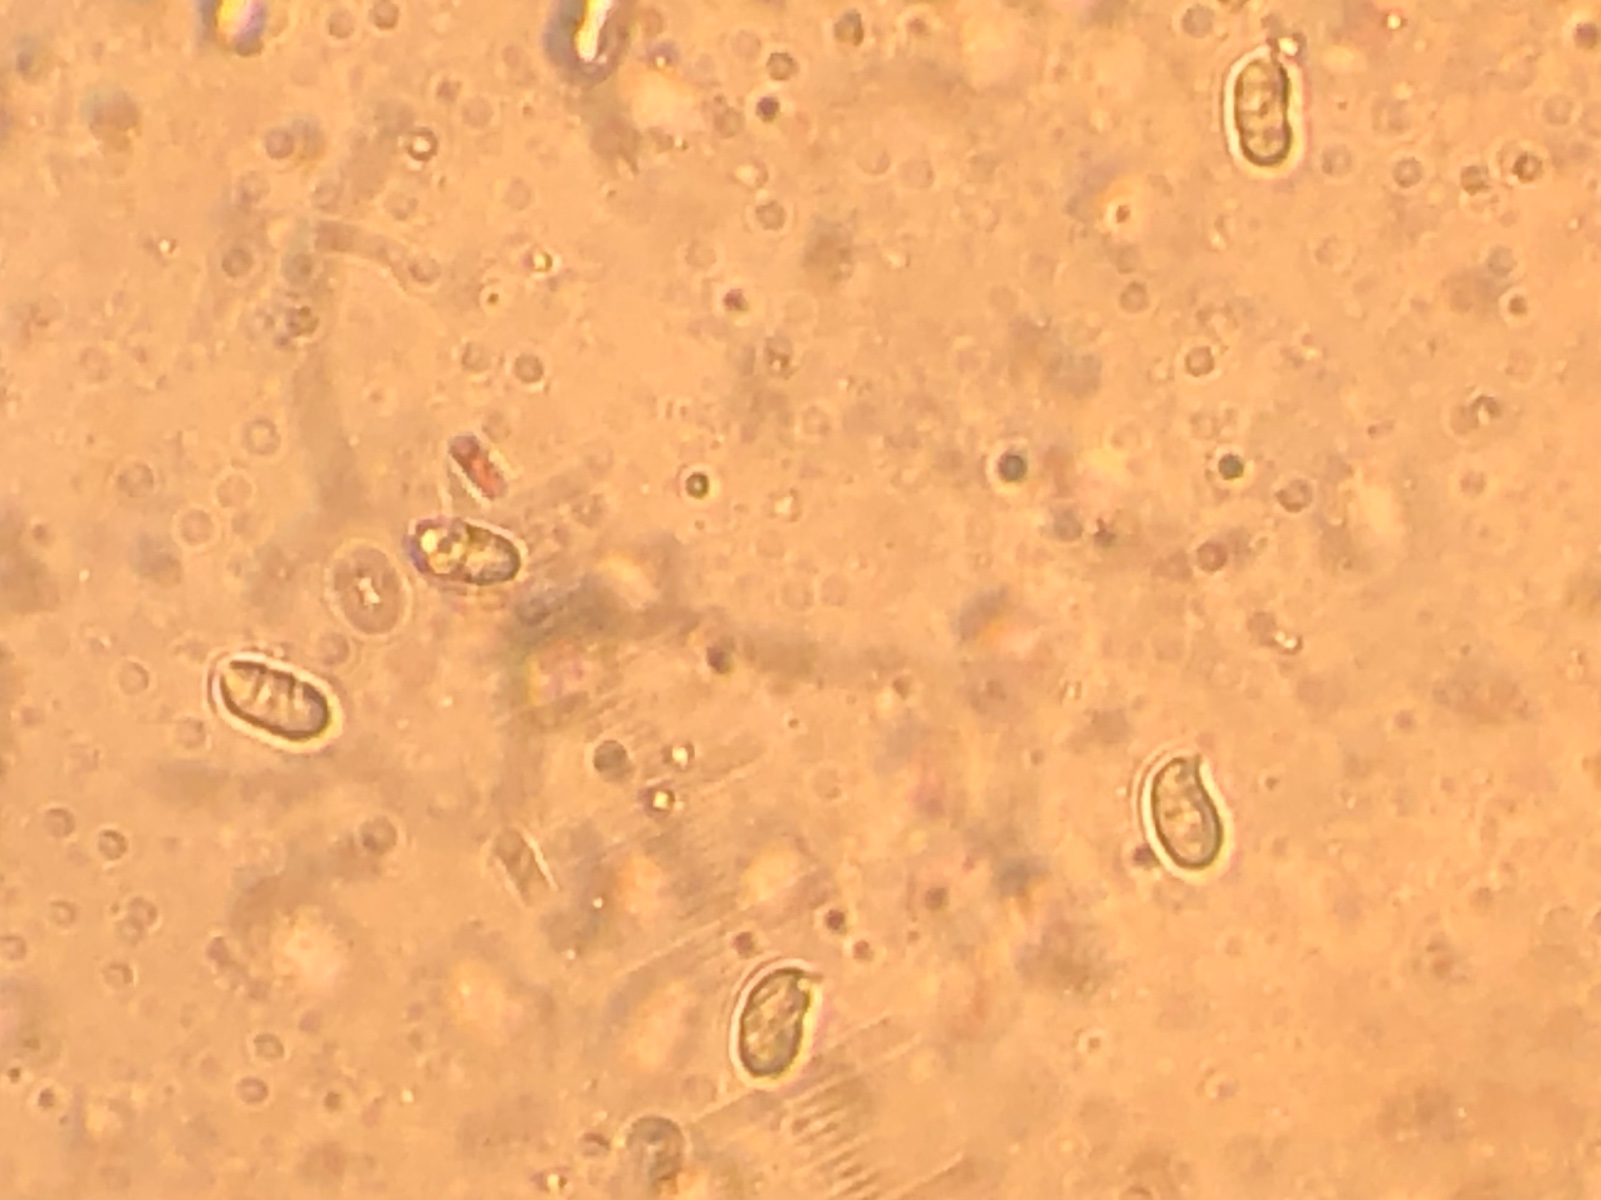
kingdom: Fungi
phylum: Basidiomycota
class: Agaricomycetes
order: Agaricales
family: Hygrophoraceae
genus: Hygrocybe
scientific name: Hygrocybe
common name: vokshat
